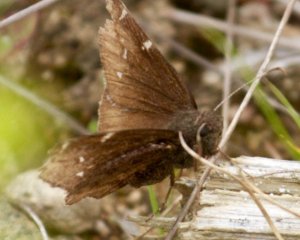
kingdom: Animalia
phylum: Arthropoda
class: Insecta
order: Lepidoptera
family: Hesperiidae
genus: Autochton
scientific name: Autochton
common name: Northern Cloudywing
